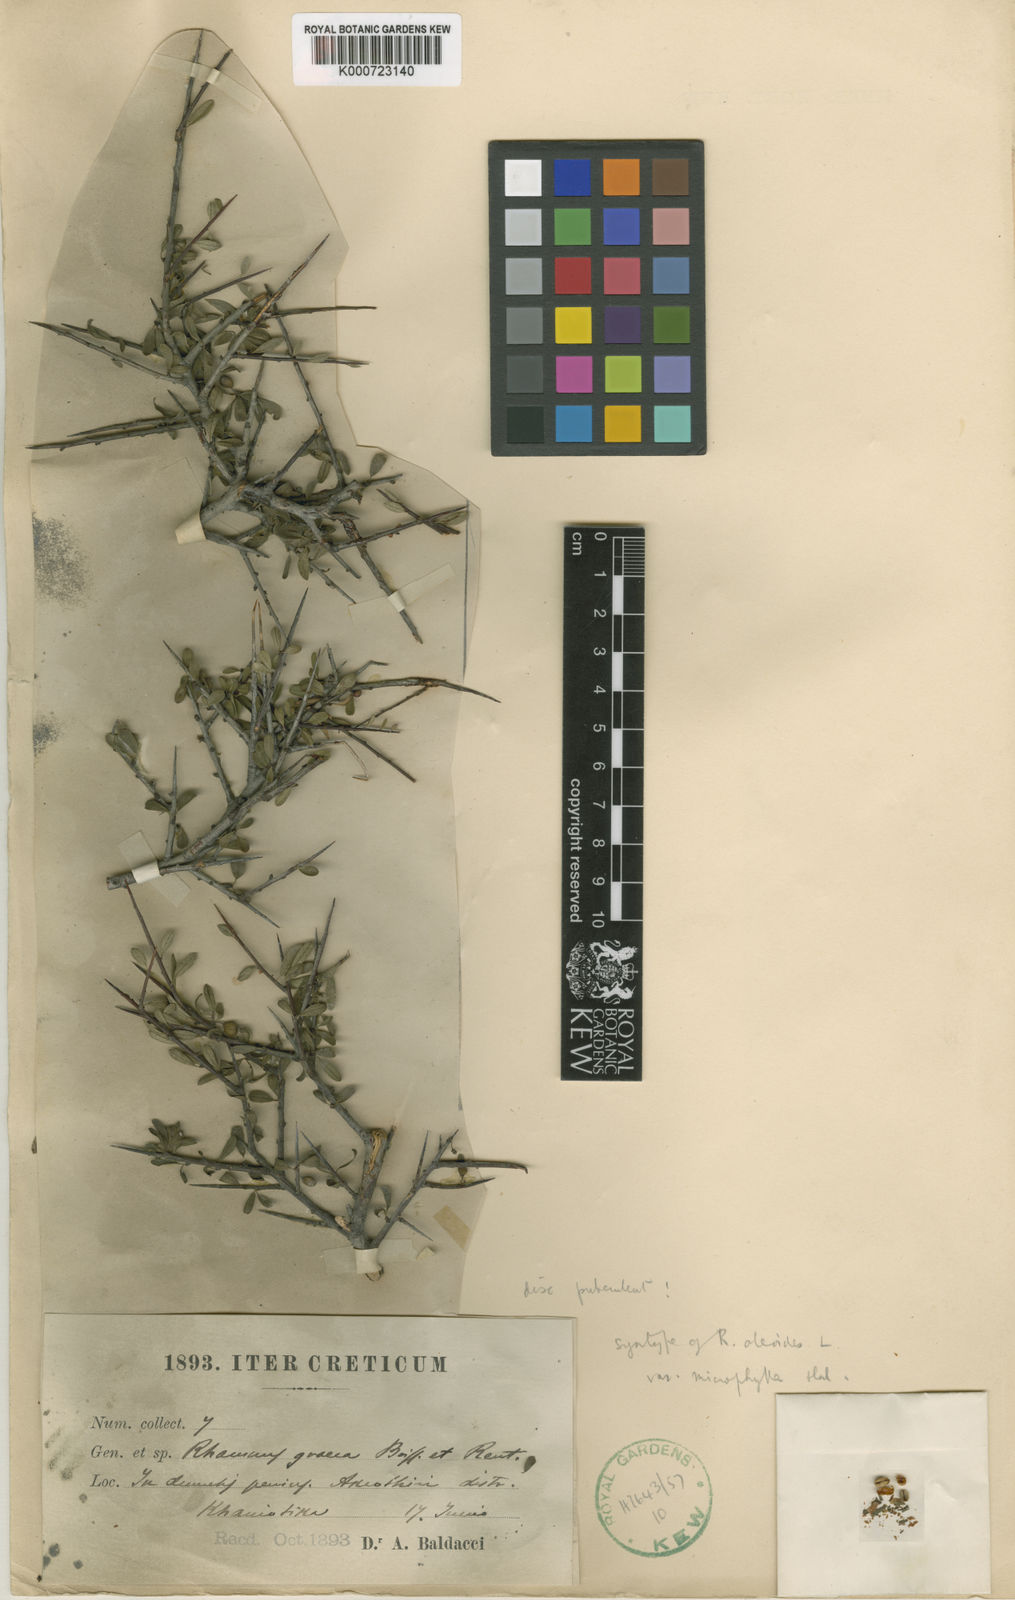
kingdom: Plantae
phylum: Tracheophyta
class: Magnoliopsida
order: Rosales
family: Rhamnaceae
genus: Rhamnus
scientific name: Rhamnus oleoides
